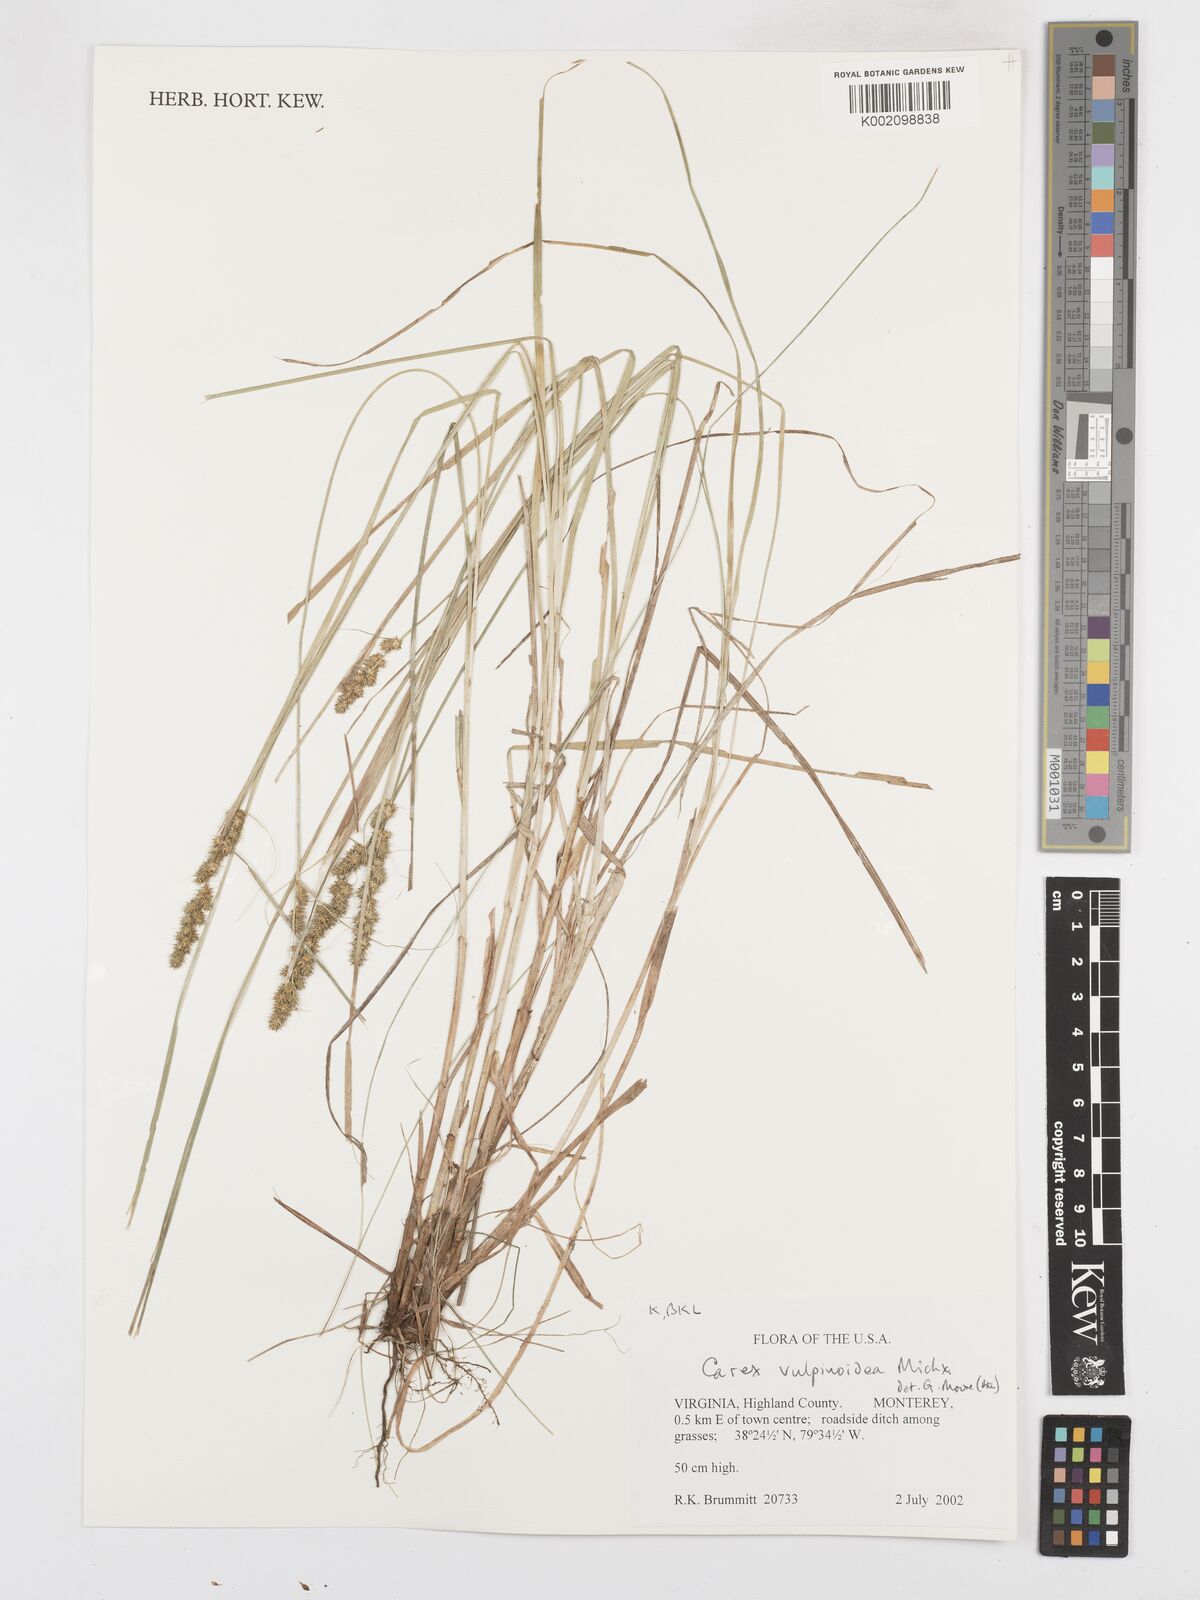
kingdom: Plantae
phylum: Tracheophyta
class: Liliopsida
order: Poales
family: Cyperaceae
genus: Carex
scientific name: Carex triangularis
